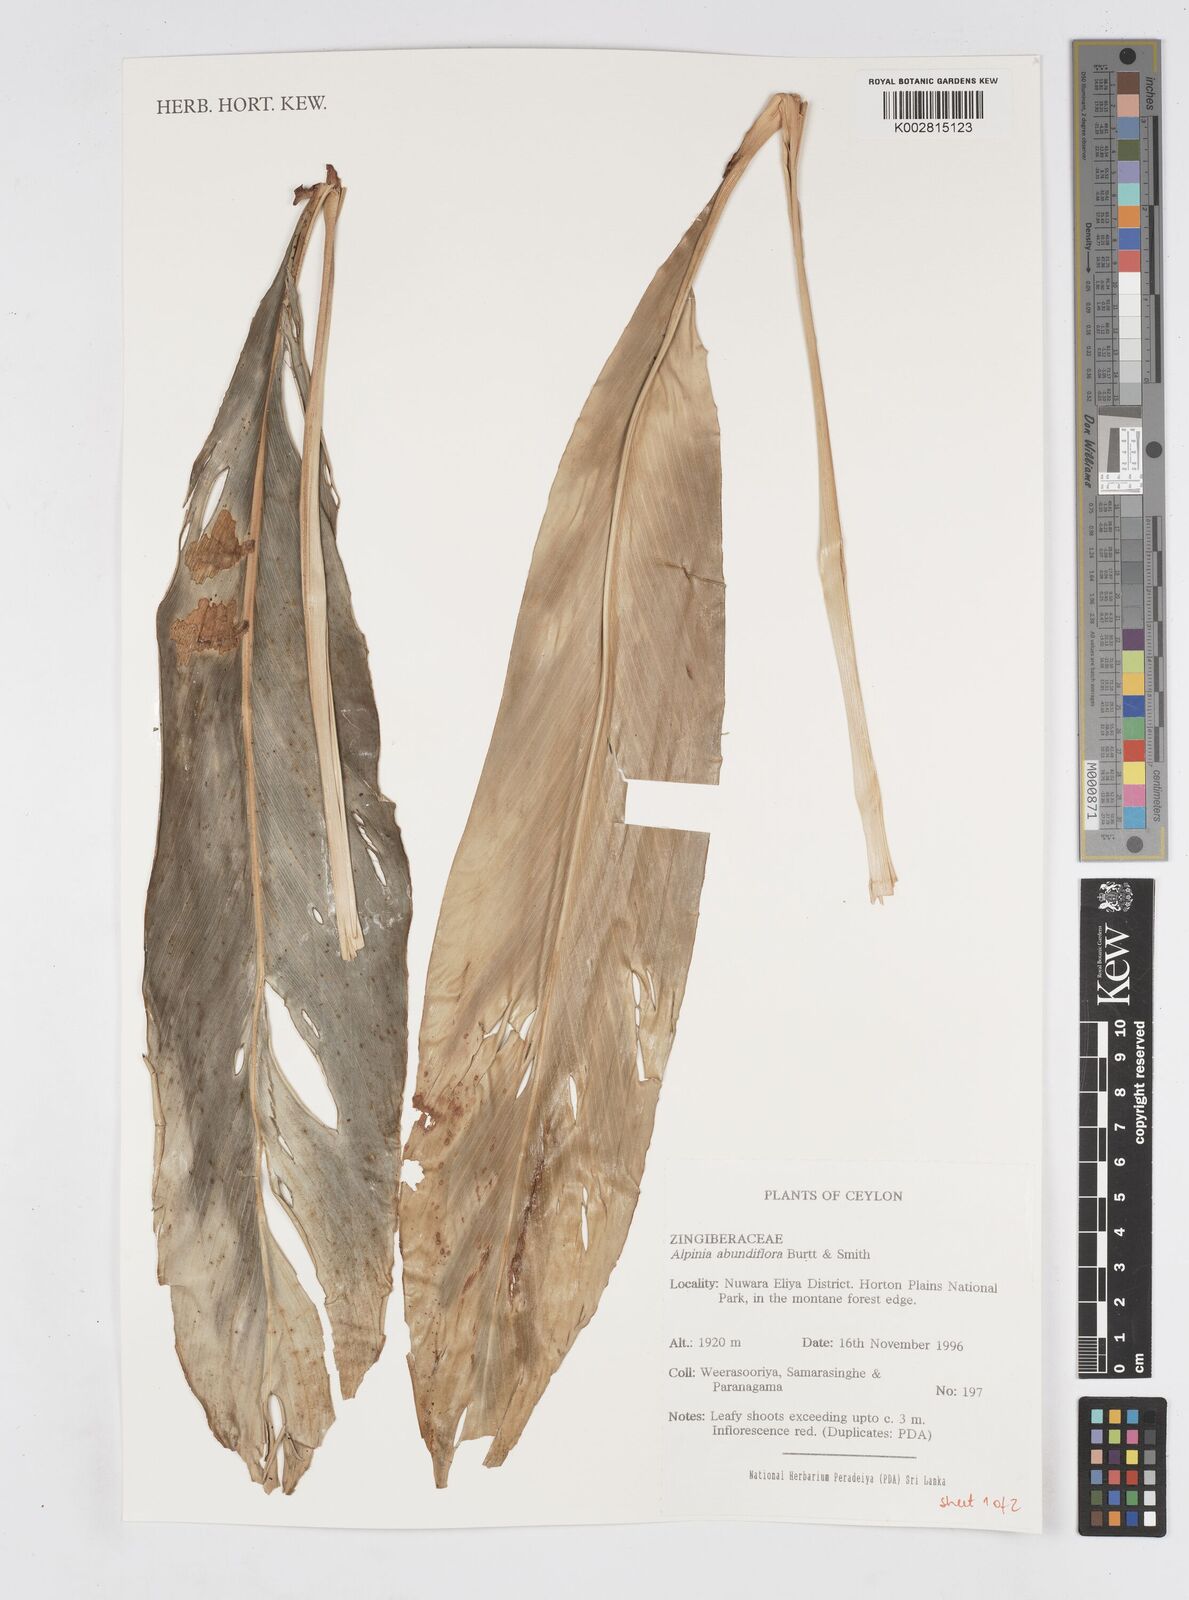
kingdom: Plantae
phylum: Tracheophyta
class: Liliopsida
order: Zingiberales
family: Zingiberaceae
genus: Alpinia
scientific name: Alpinia abundiflora
